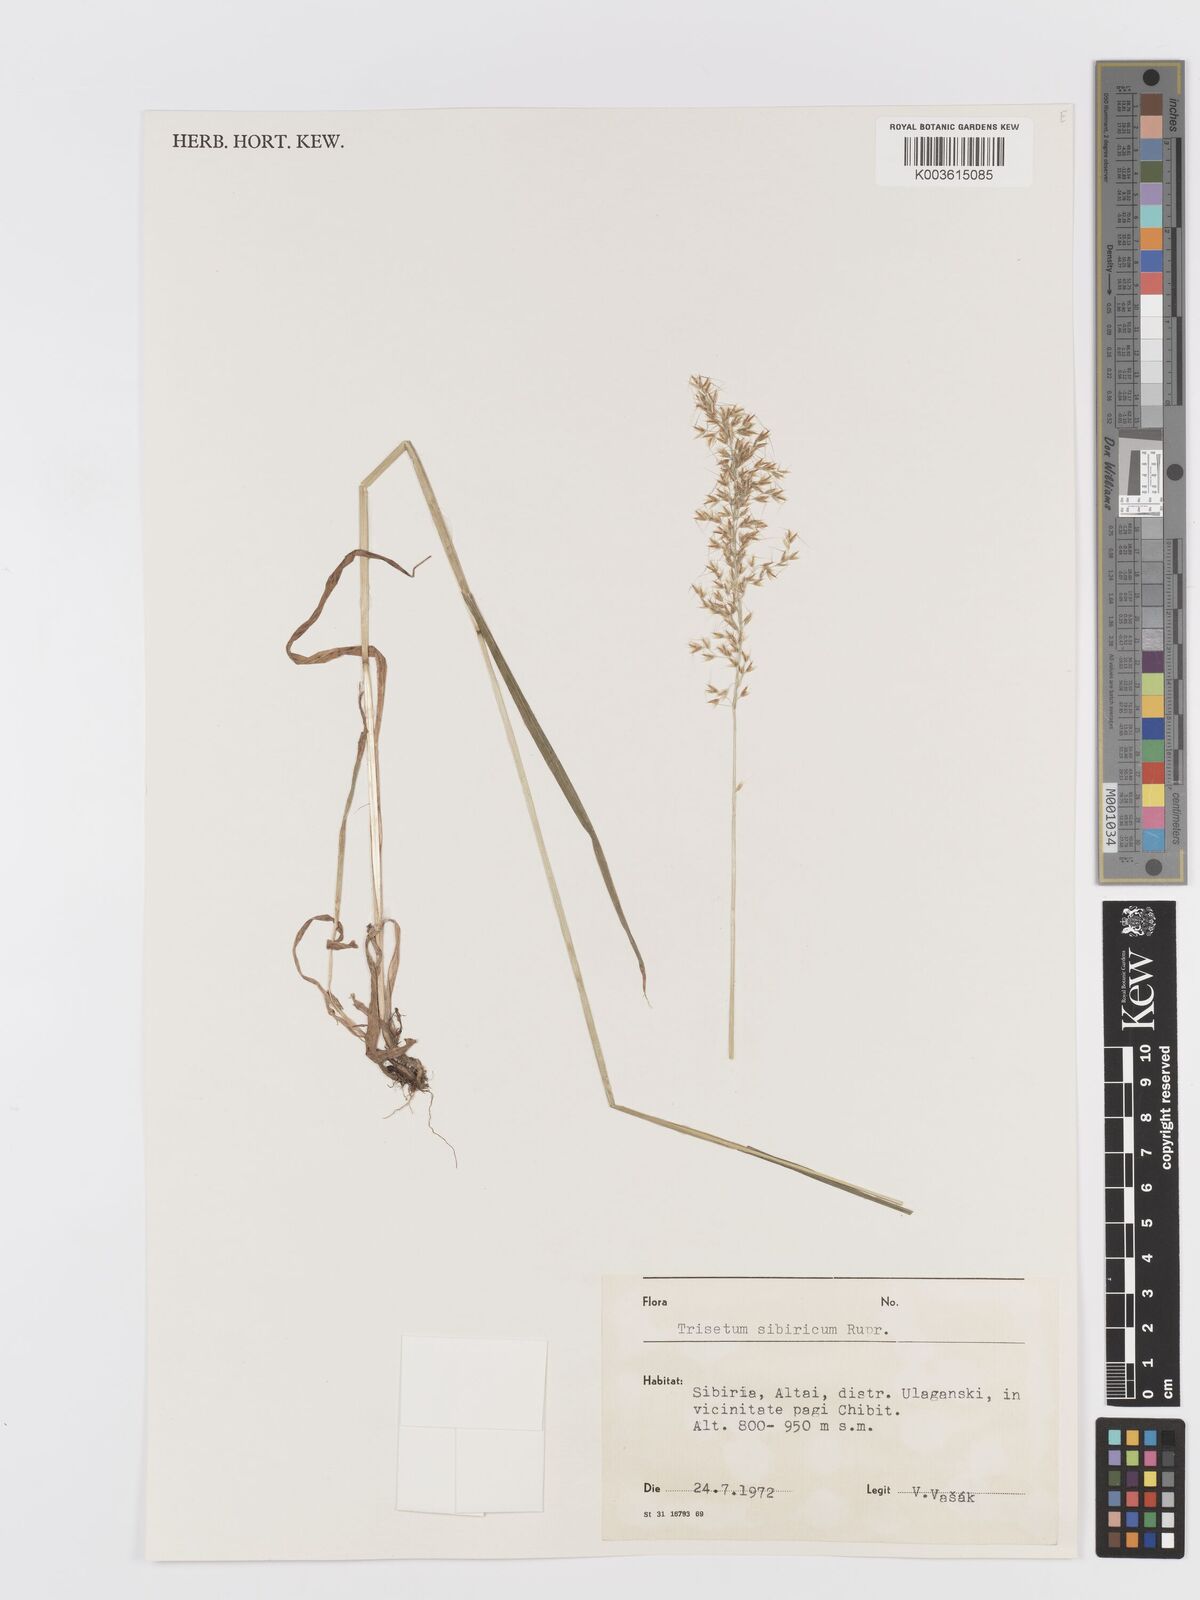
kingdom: Plantae
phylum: Tracheophyta
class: Liliopsida
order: Poales
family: Poaceae
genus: Sibirotrisetum
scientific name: Sibirotrisetum sibiricum
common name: Siberian false oat
